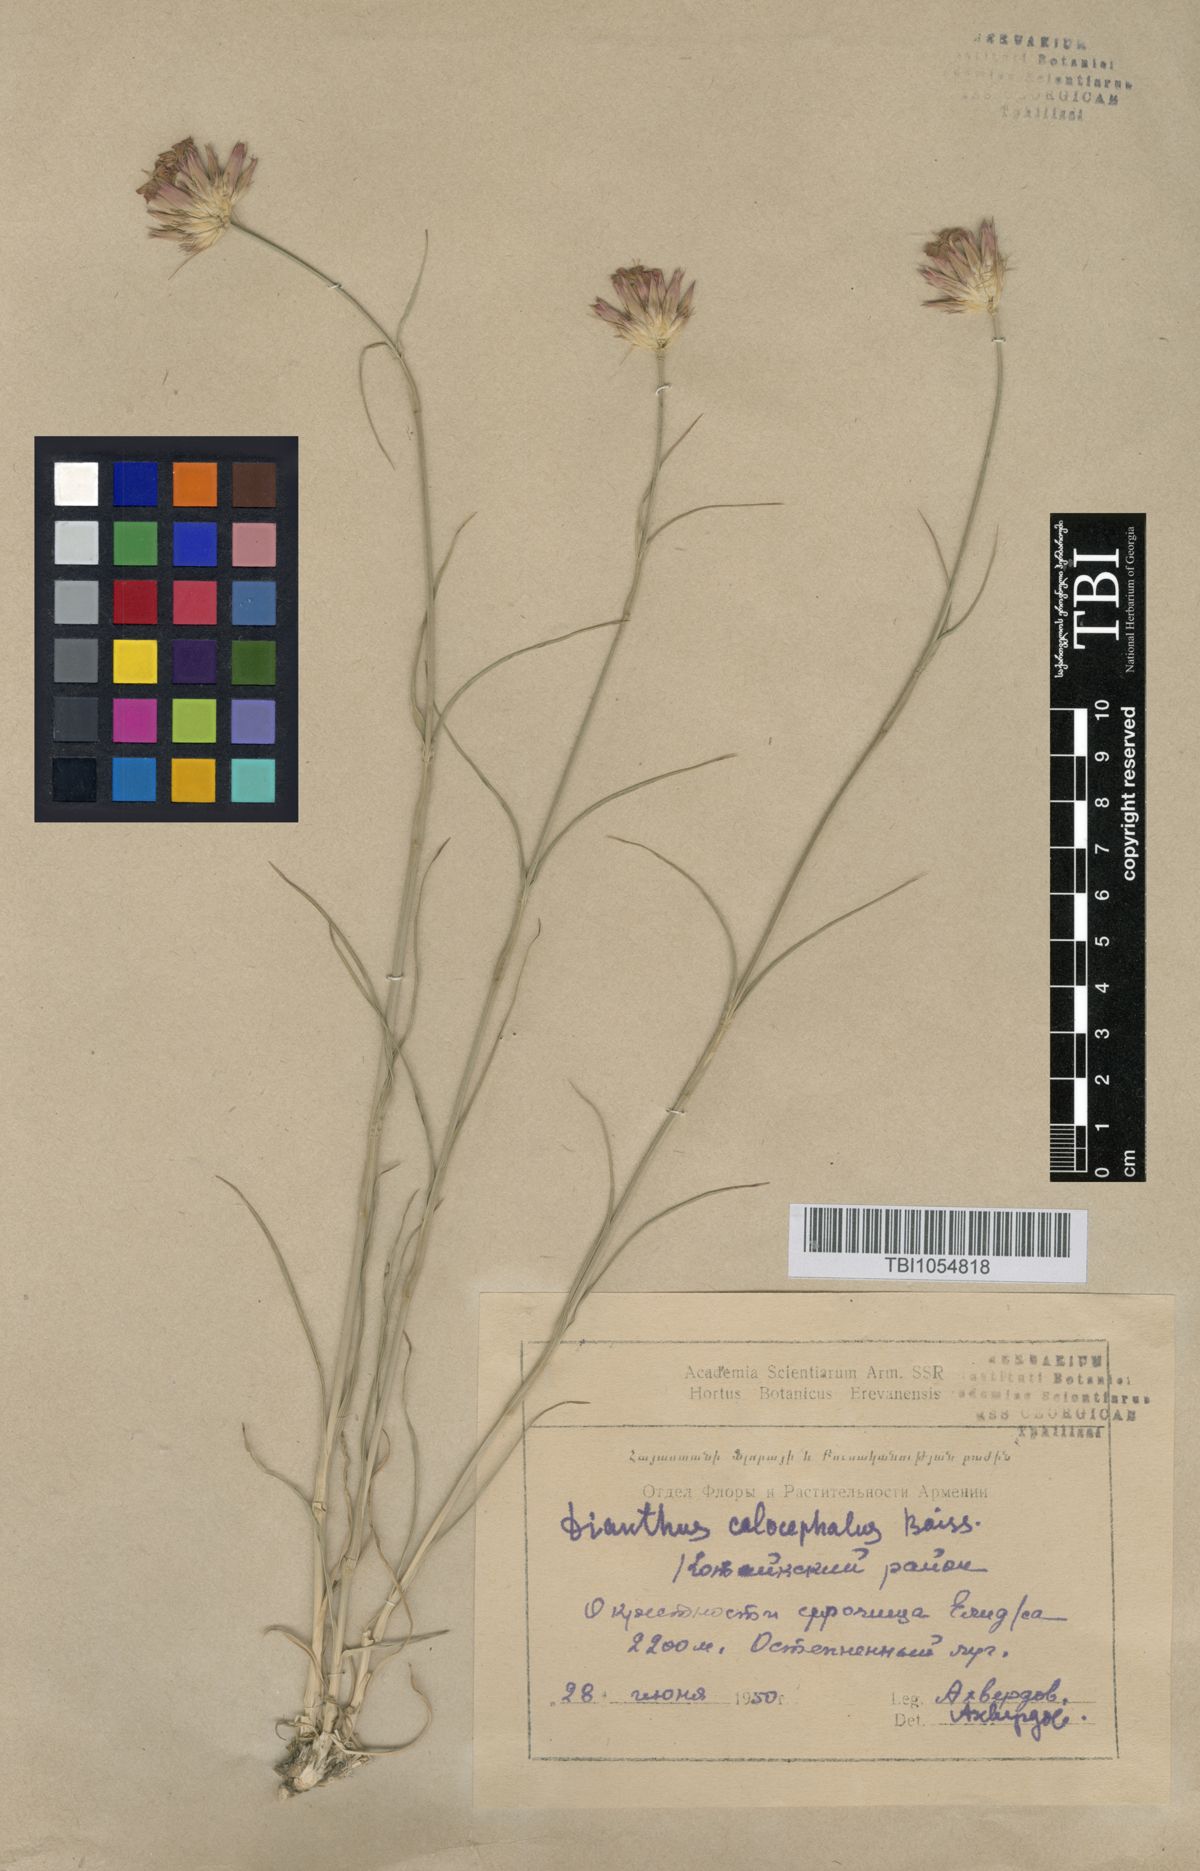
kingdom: Plantae
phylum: Tracheophyta
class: Magnoliopsida
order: Caryophyllales
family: Caryophyllaceae
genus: Dianthus
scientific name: Dianthus cruentus
